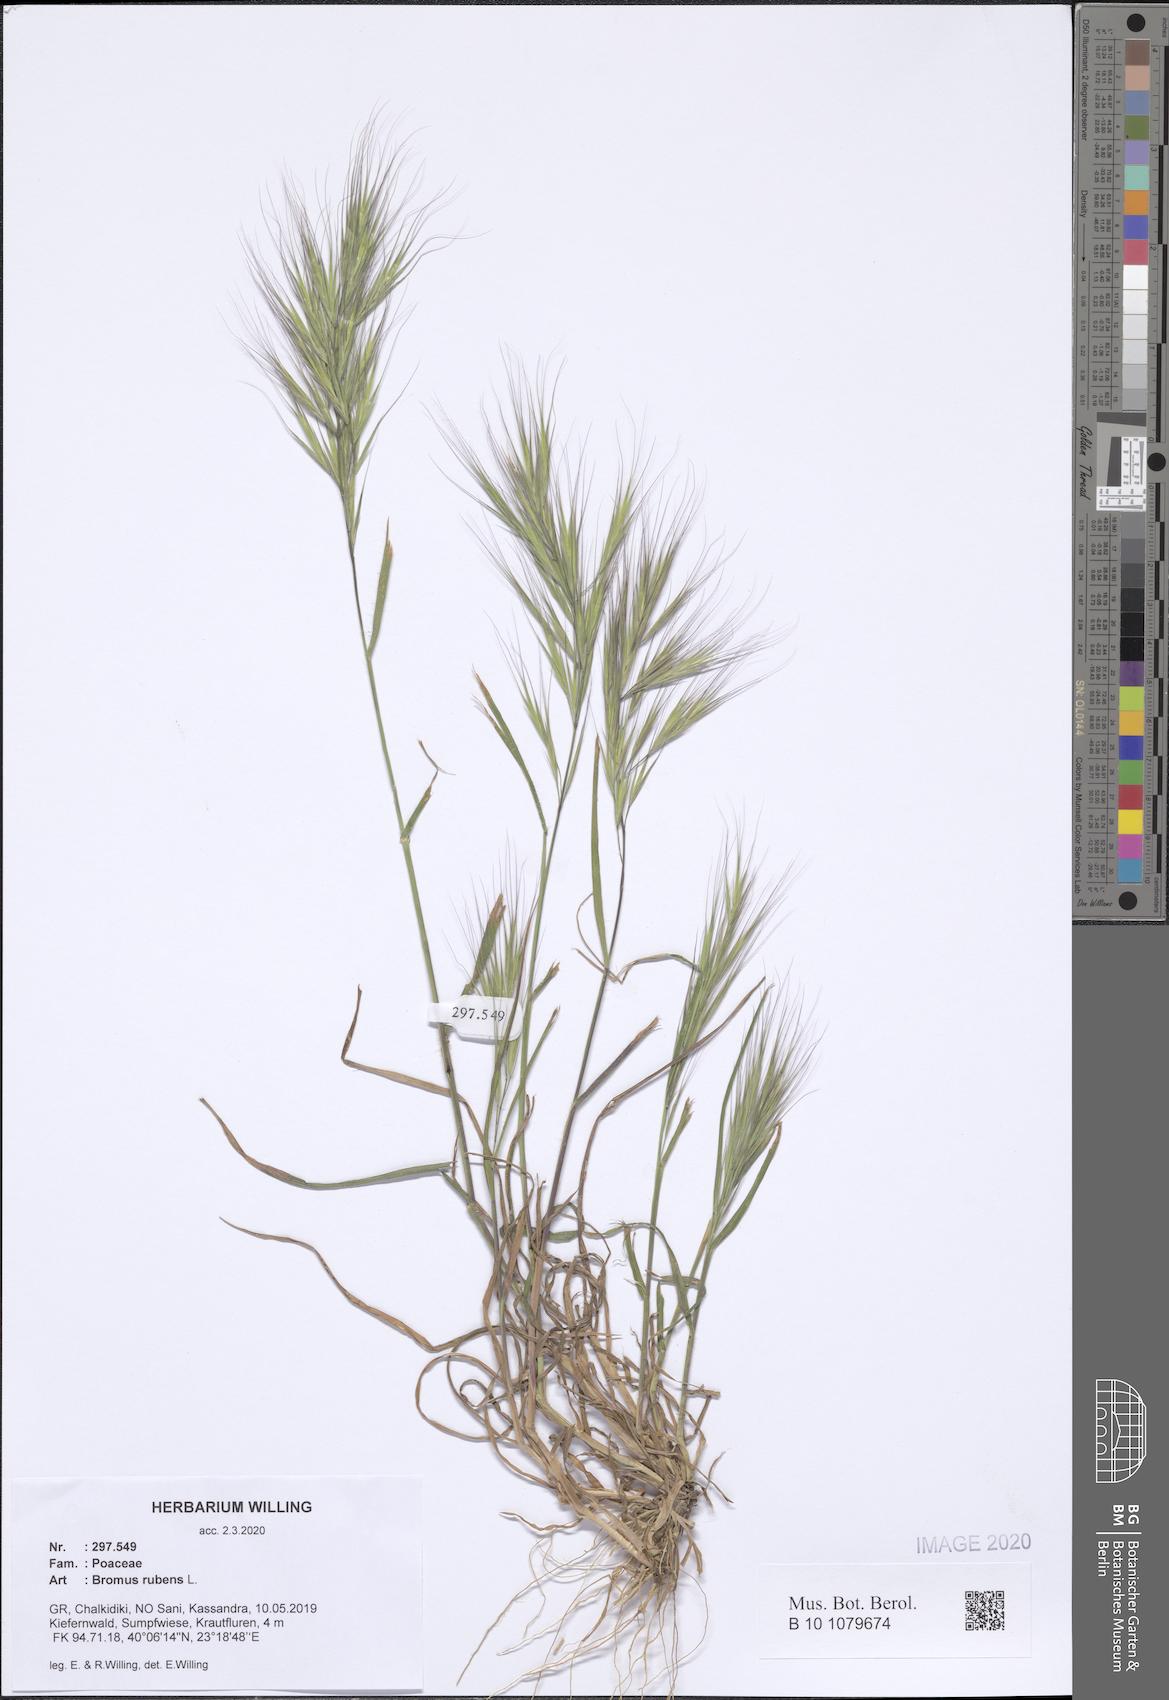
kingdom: Plantae
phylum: Tracheophyta
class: Liliopsida
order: Poales
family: Poaceae
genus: Bromus
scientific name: Bromus rubens
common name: Red brome
